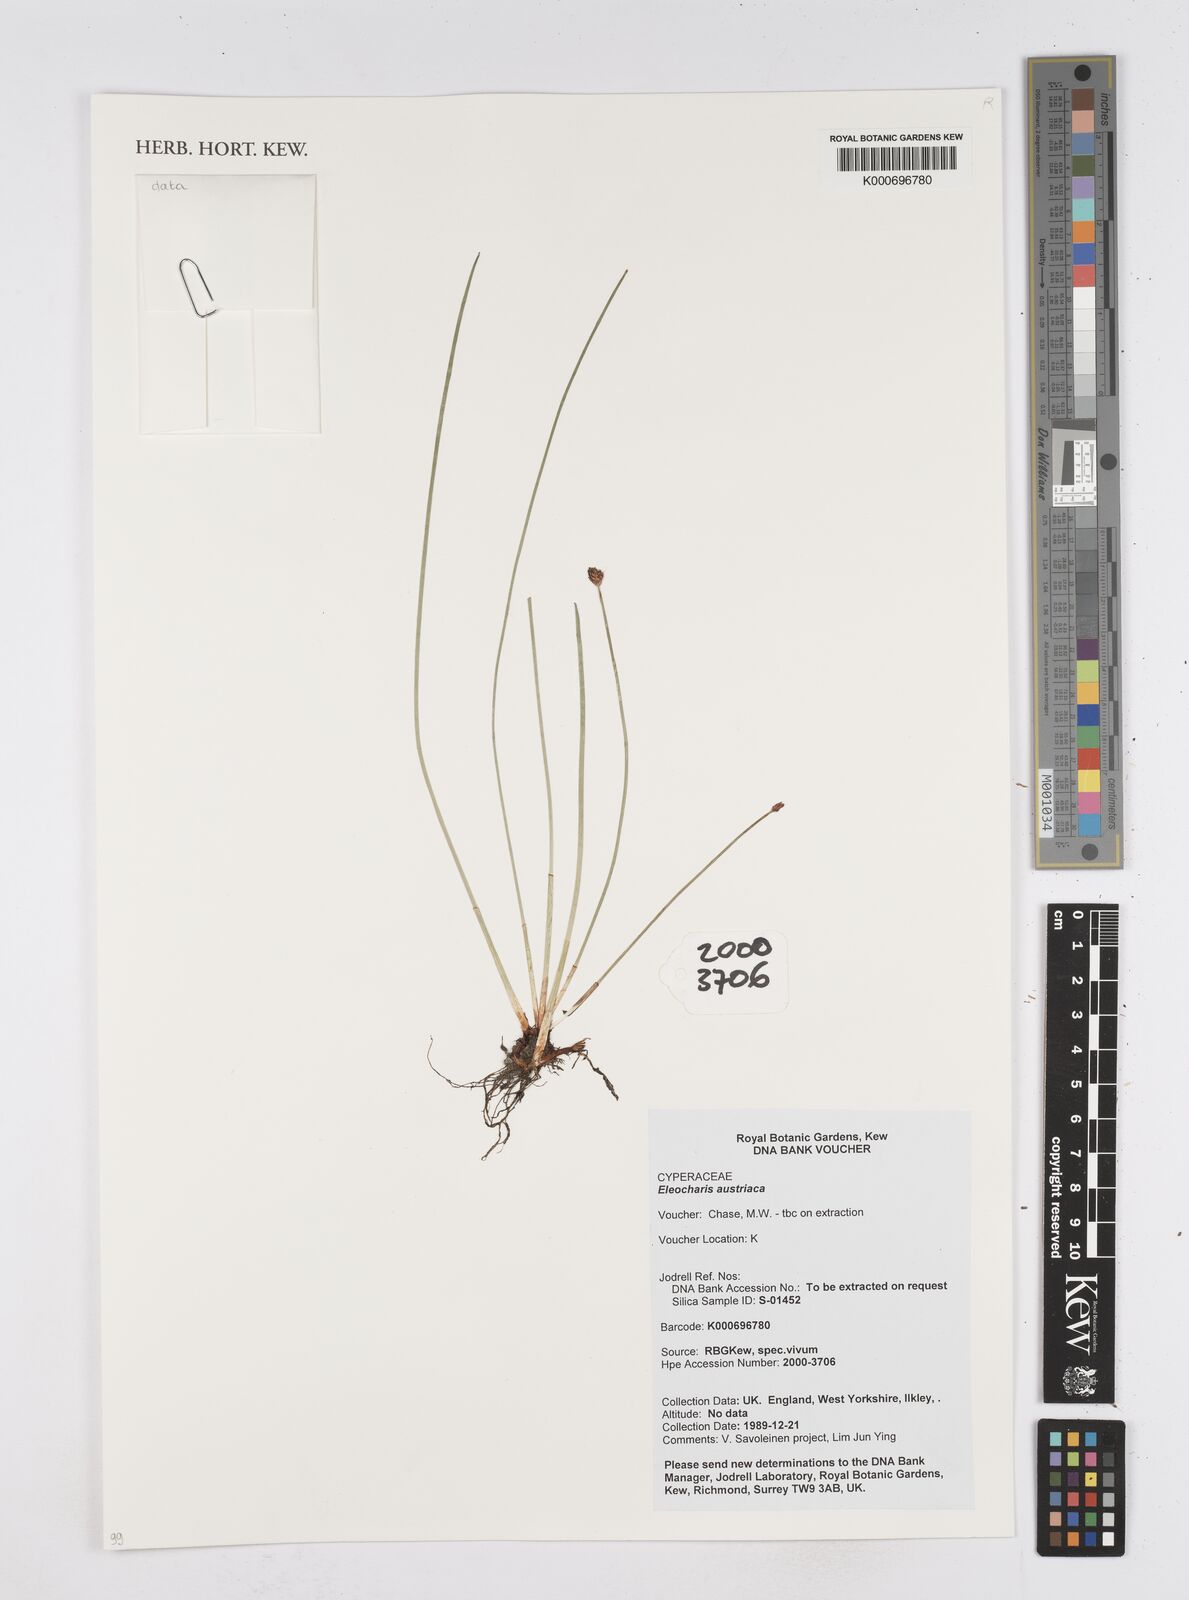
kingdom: Plantae
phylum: Tracheophyta
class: Liliopsida
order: Poales
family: Cyperaceae
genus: Eleocharis
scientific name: Eleocharis mamillata
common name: Northern spike-rush
